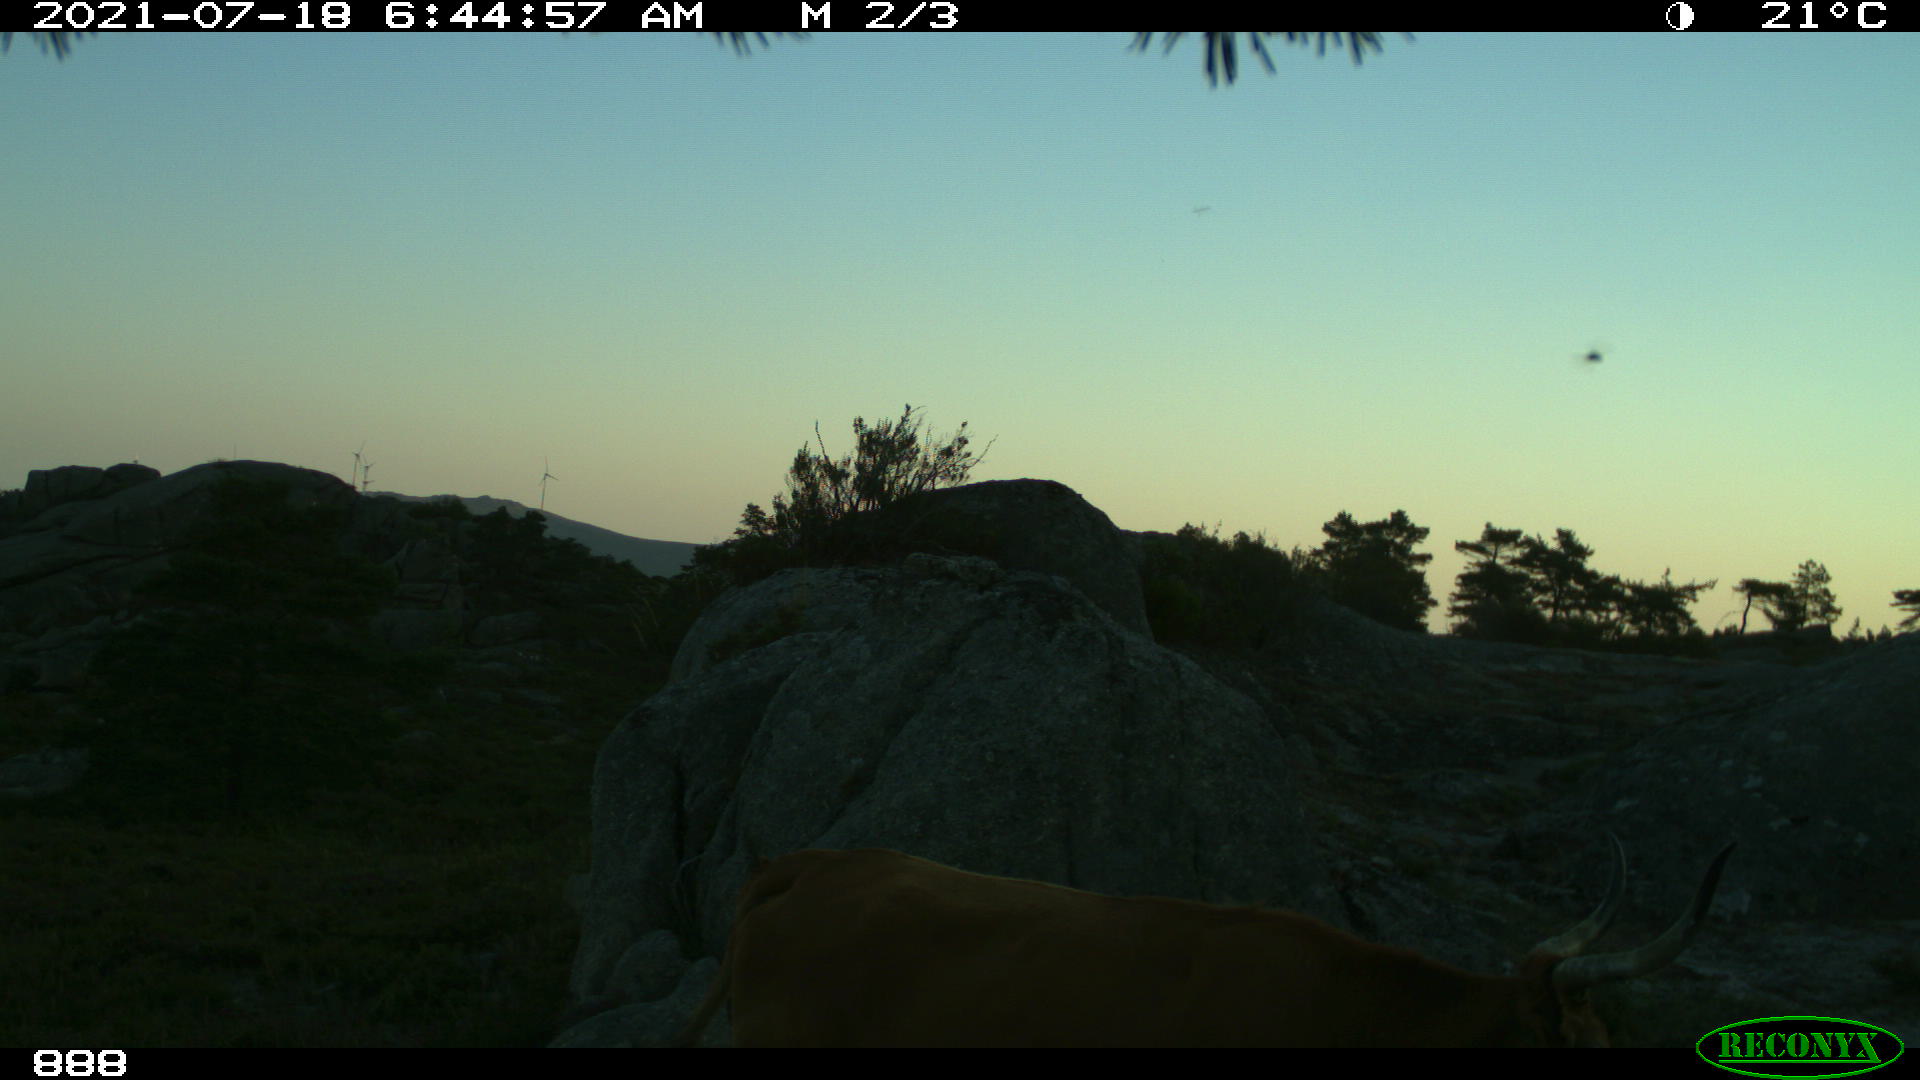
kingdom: Animalia
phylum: Chordata
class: Mammalia
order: Artiodactyla
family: Bovidae
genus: Bos
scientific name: Bos taurus
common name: Domesticated cattle
